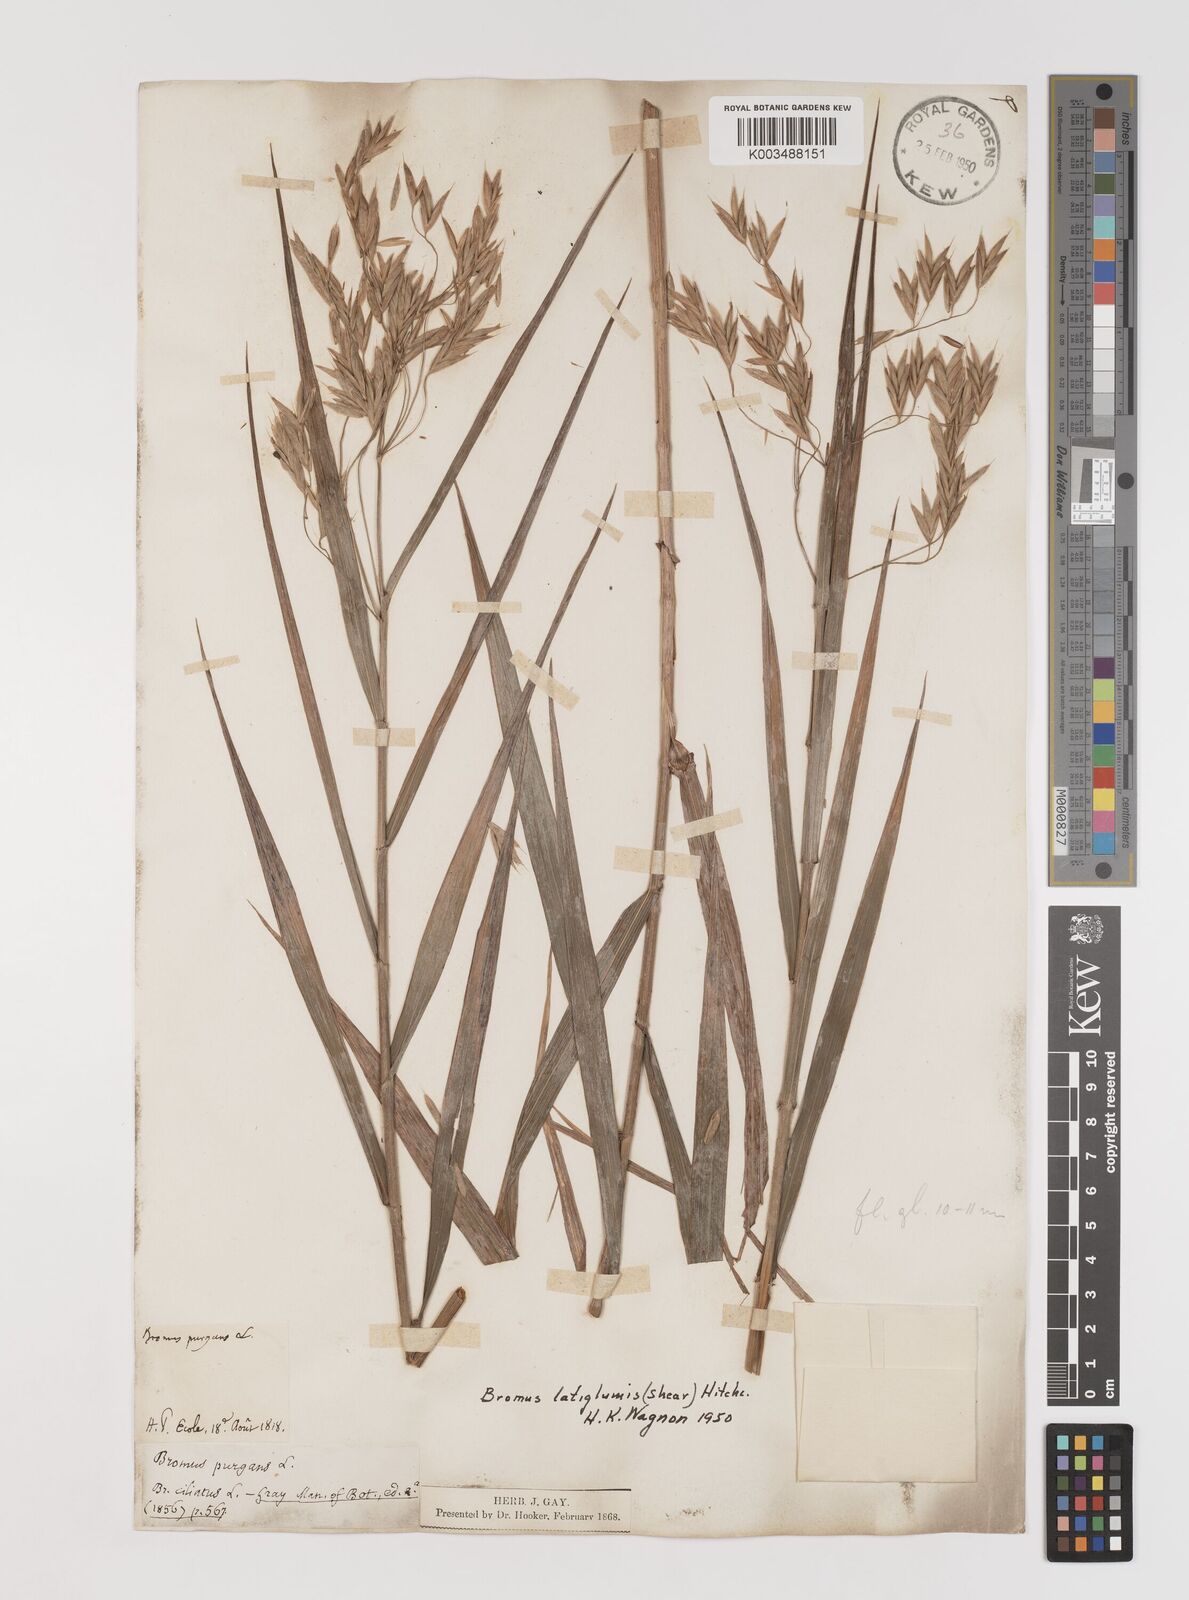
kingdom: Plantae
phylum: Tracheophyta
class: Liliopsida
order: Poales
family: Poaceae
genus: Bromus
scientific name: Bromus latiglumis
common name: Broad-glumed brome
